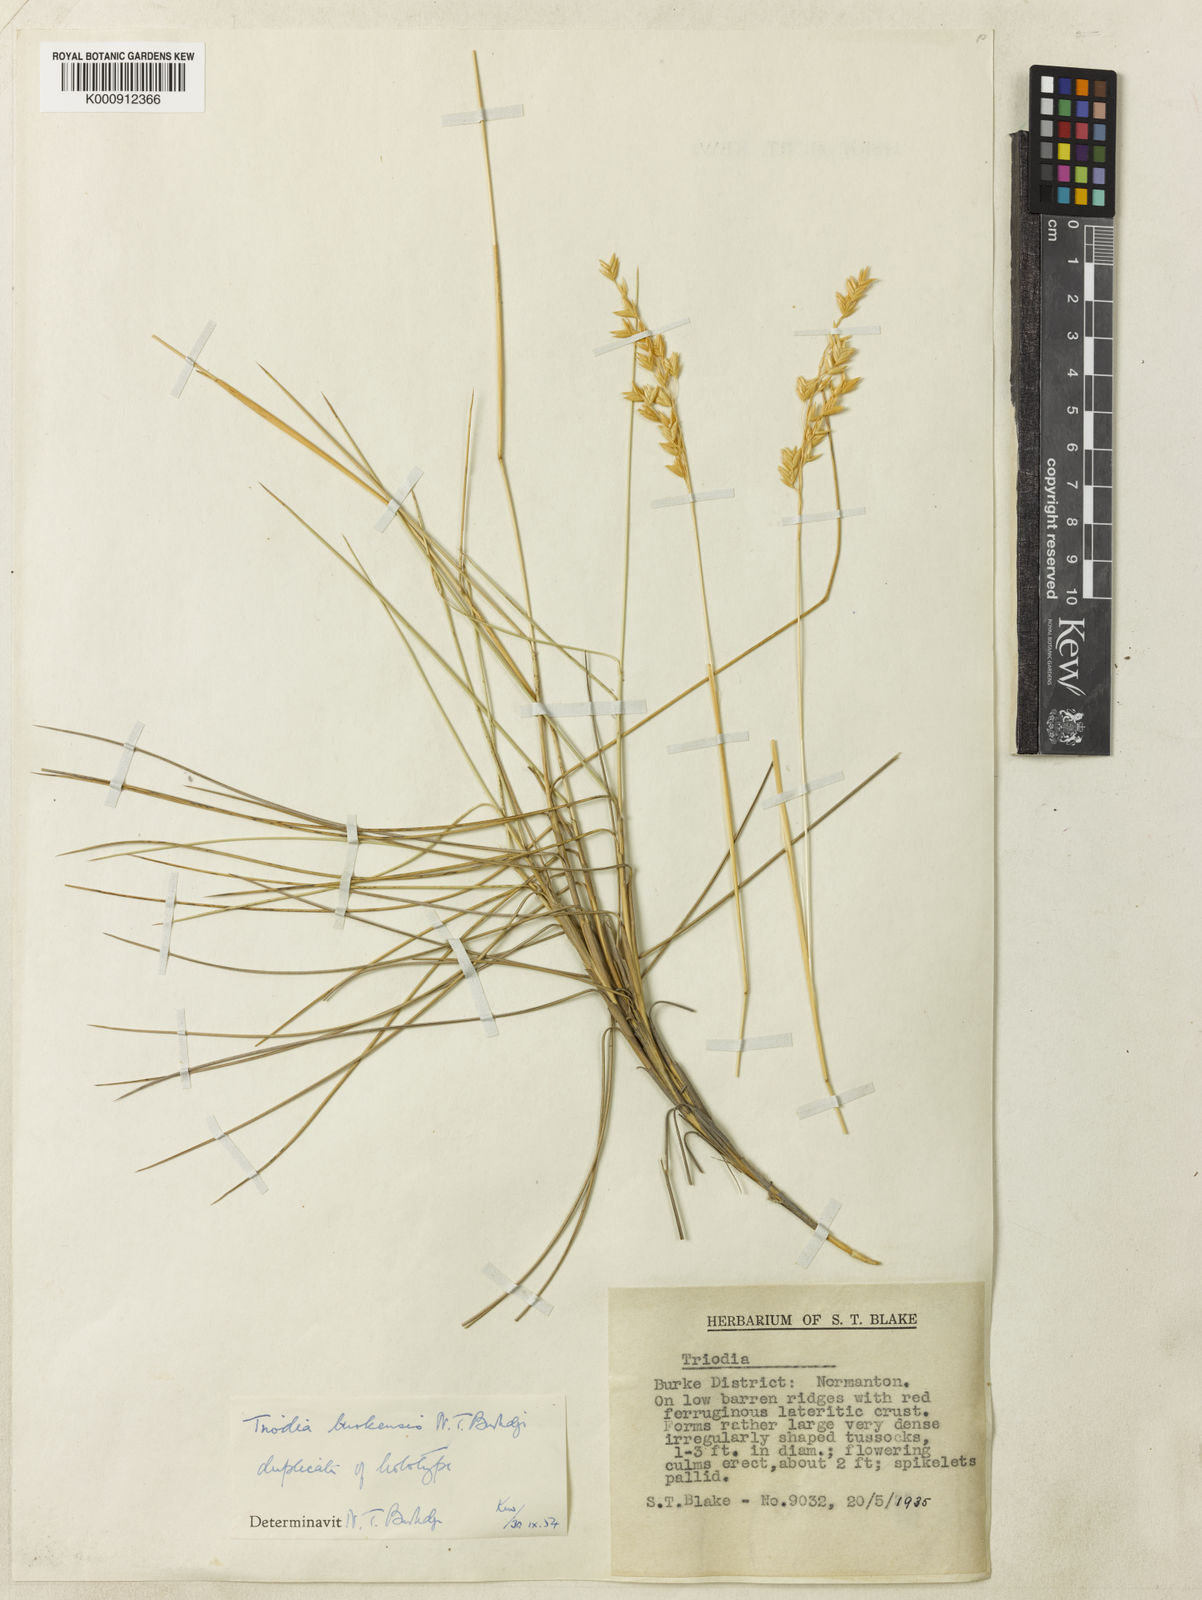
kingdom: Plantae
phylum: Tracheophyta
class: Liliopsida
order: Poales
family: Poaceae
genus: Triodia
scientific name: Triodia brizoides
